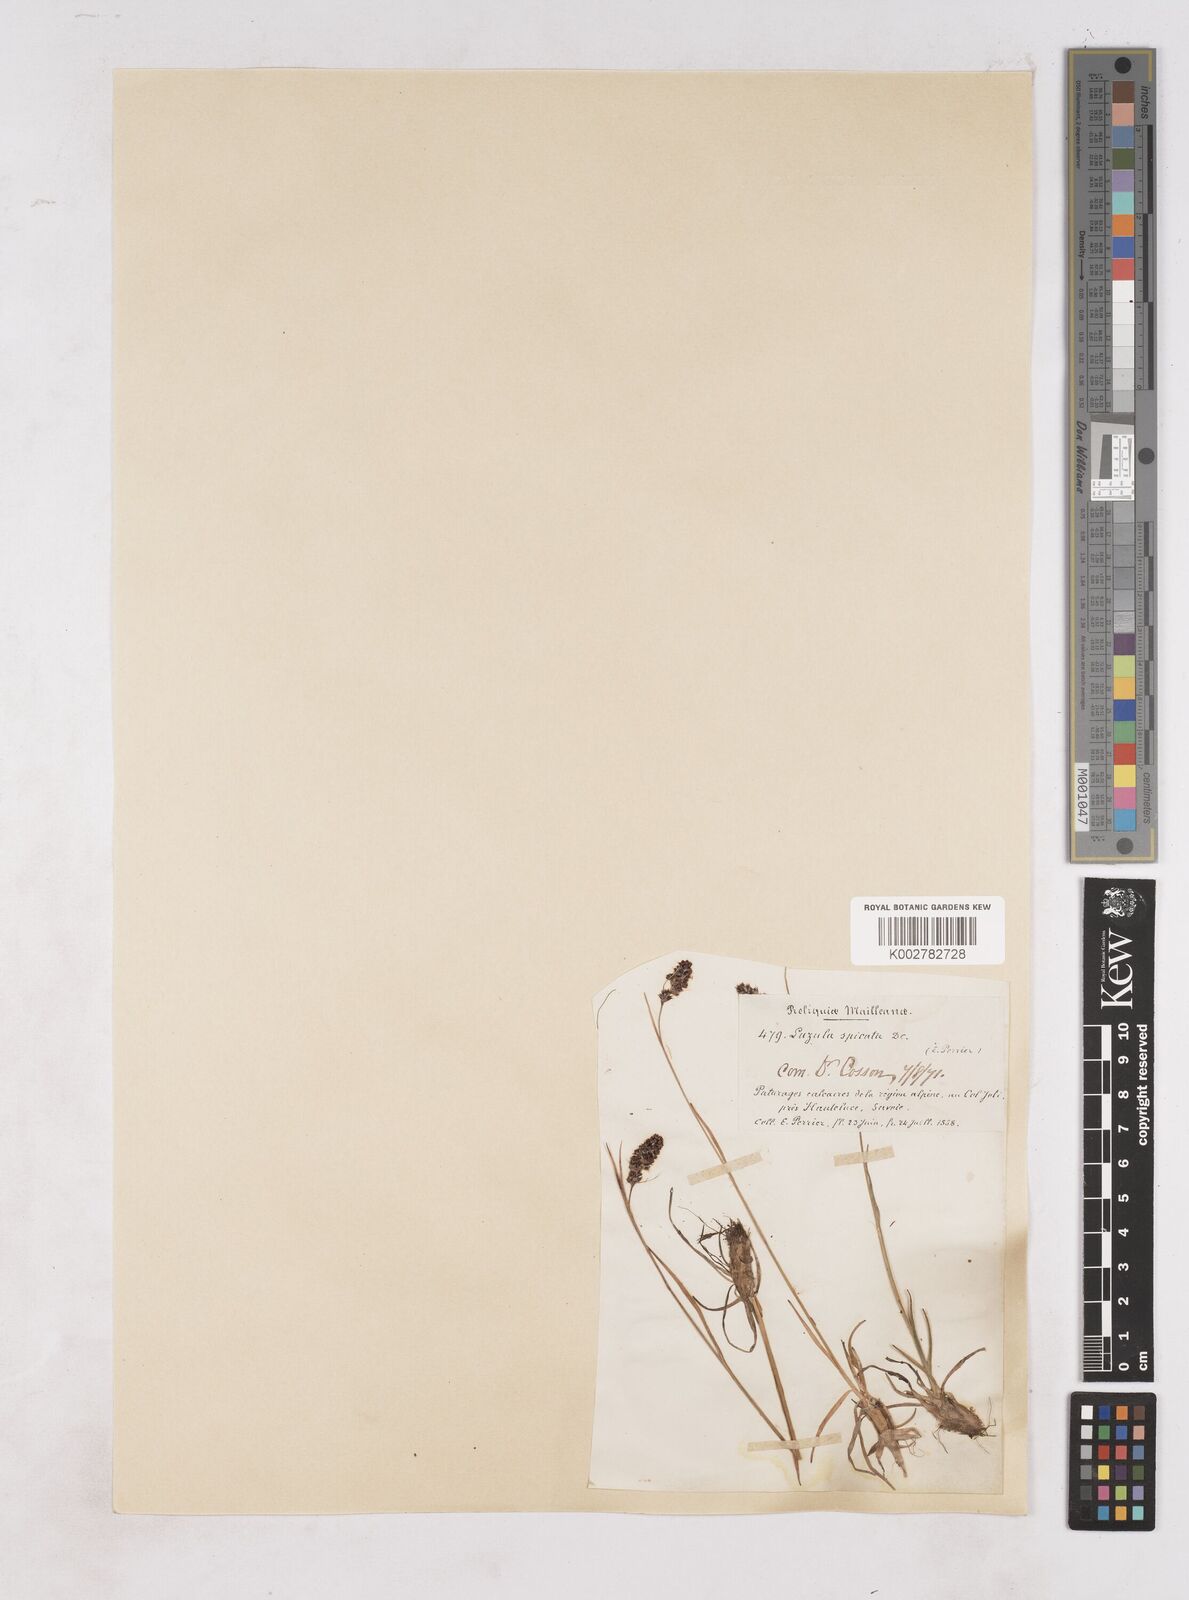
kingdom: Plantae
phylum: Tracheophyta
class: Liliopsida
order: Poales
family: Juncaceae
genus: Luzula
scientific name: Luzula spicata
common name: Spiked wood-rush
